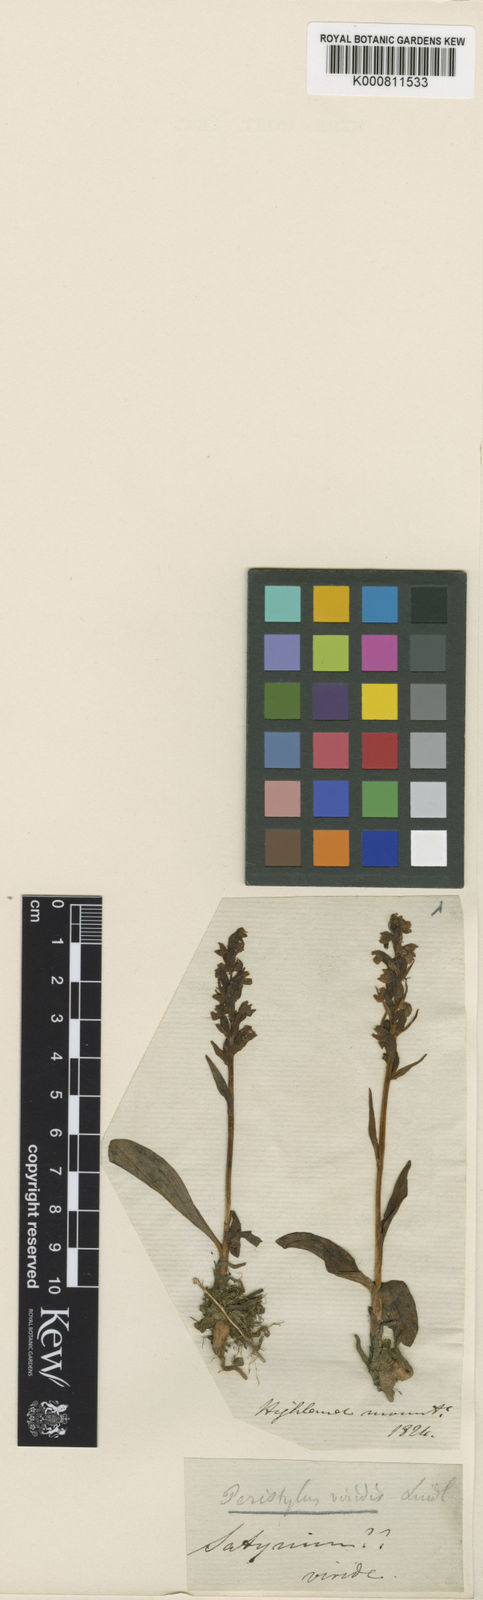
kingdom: Plantae
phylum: Tracheophyta
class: Liliopsida
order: Asparagales
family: Orchidaceae
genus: Dactylorhiza
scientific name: Dactylorhiza viridis
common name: Longbract frog orchid
